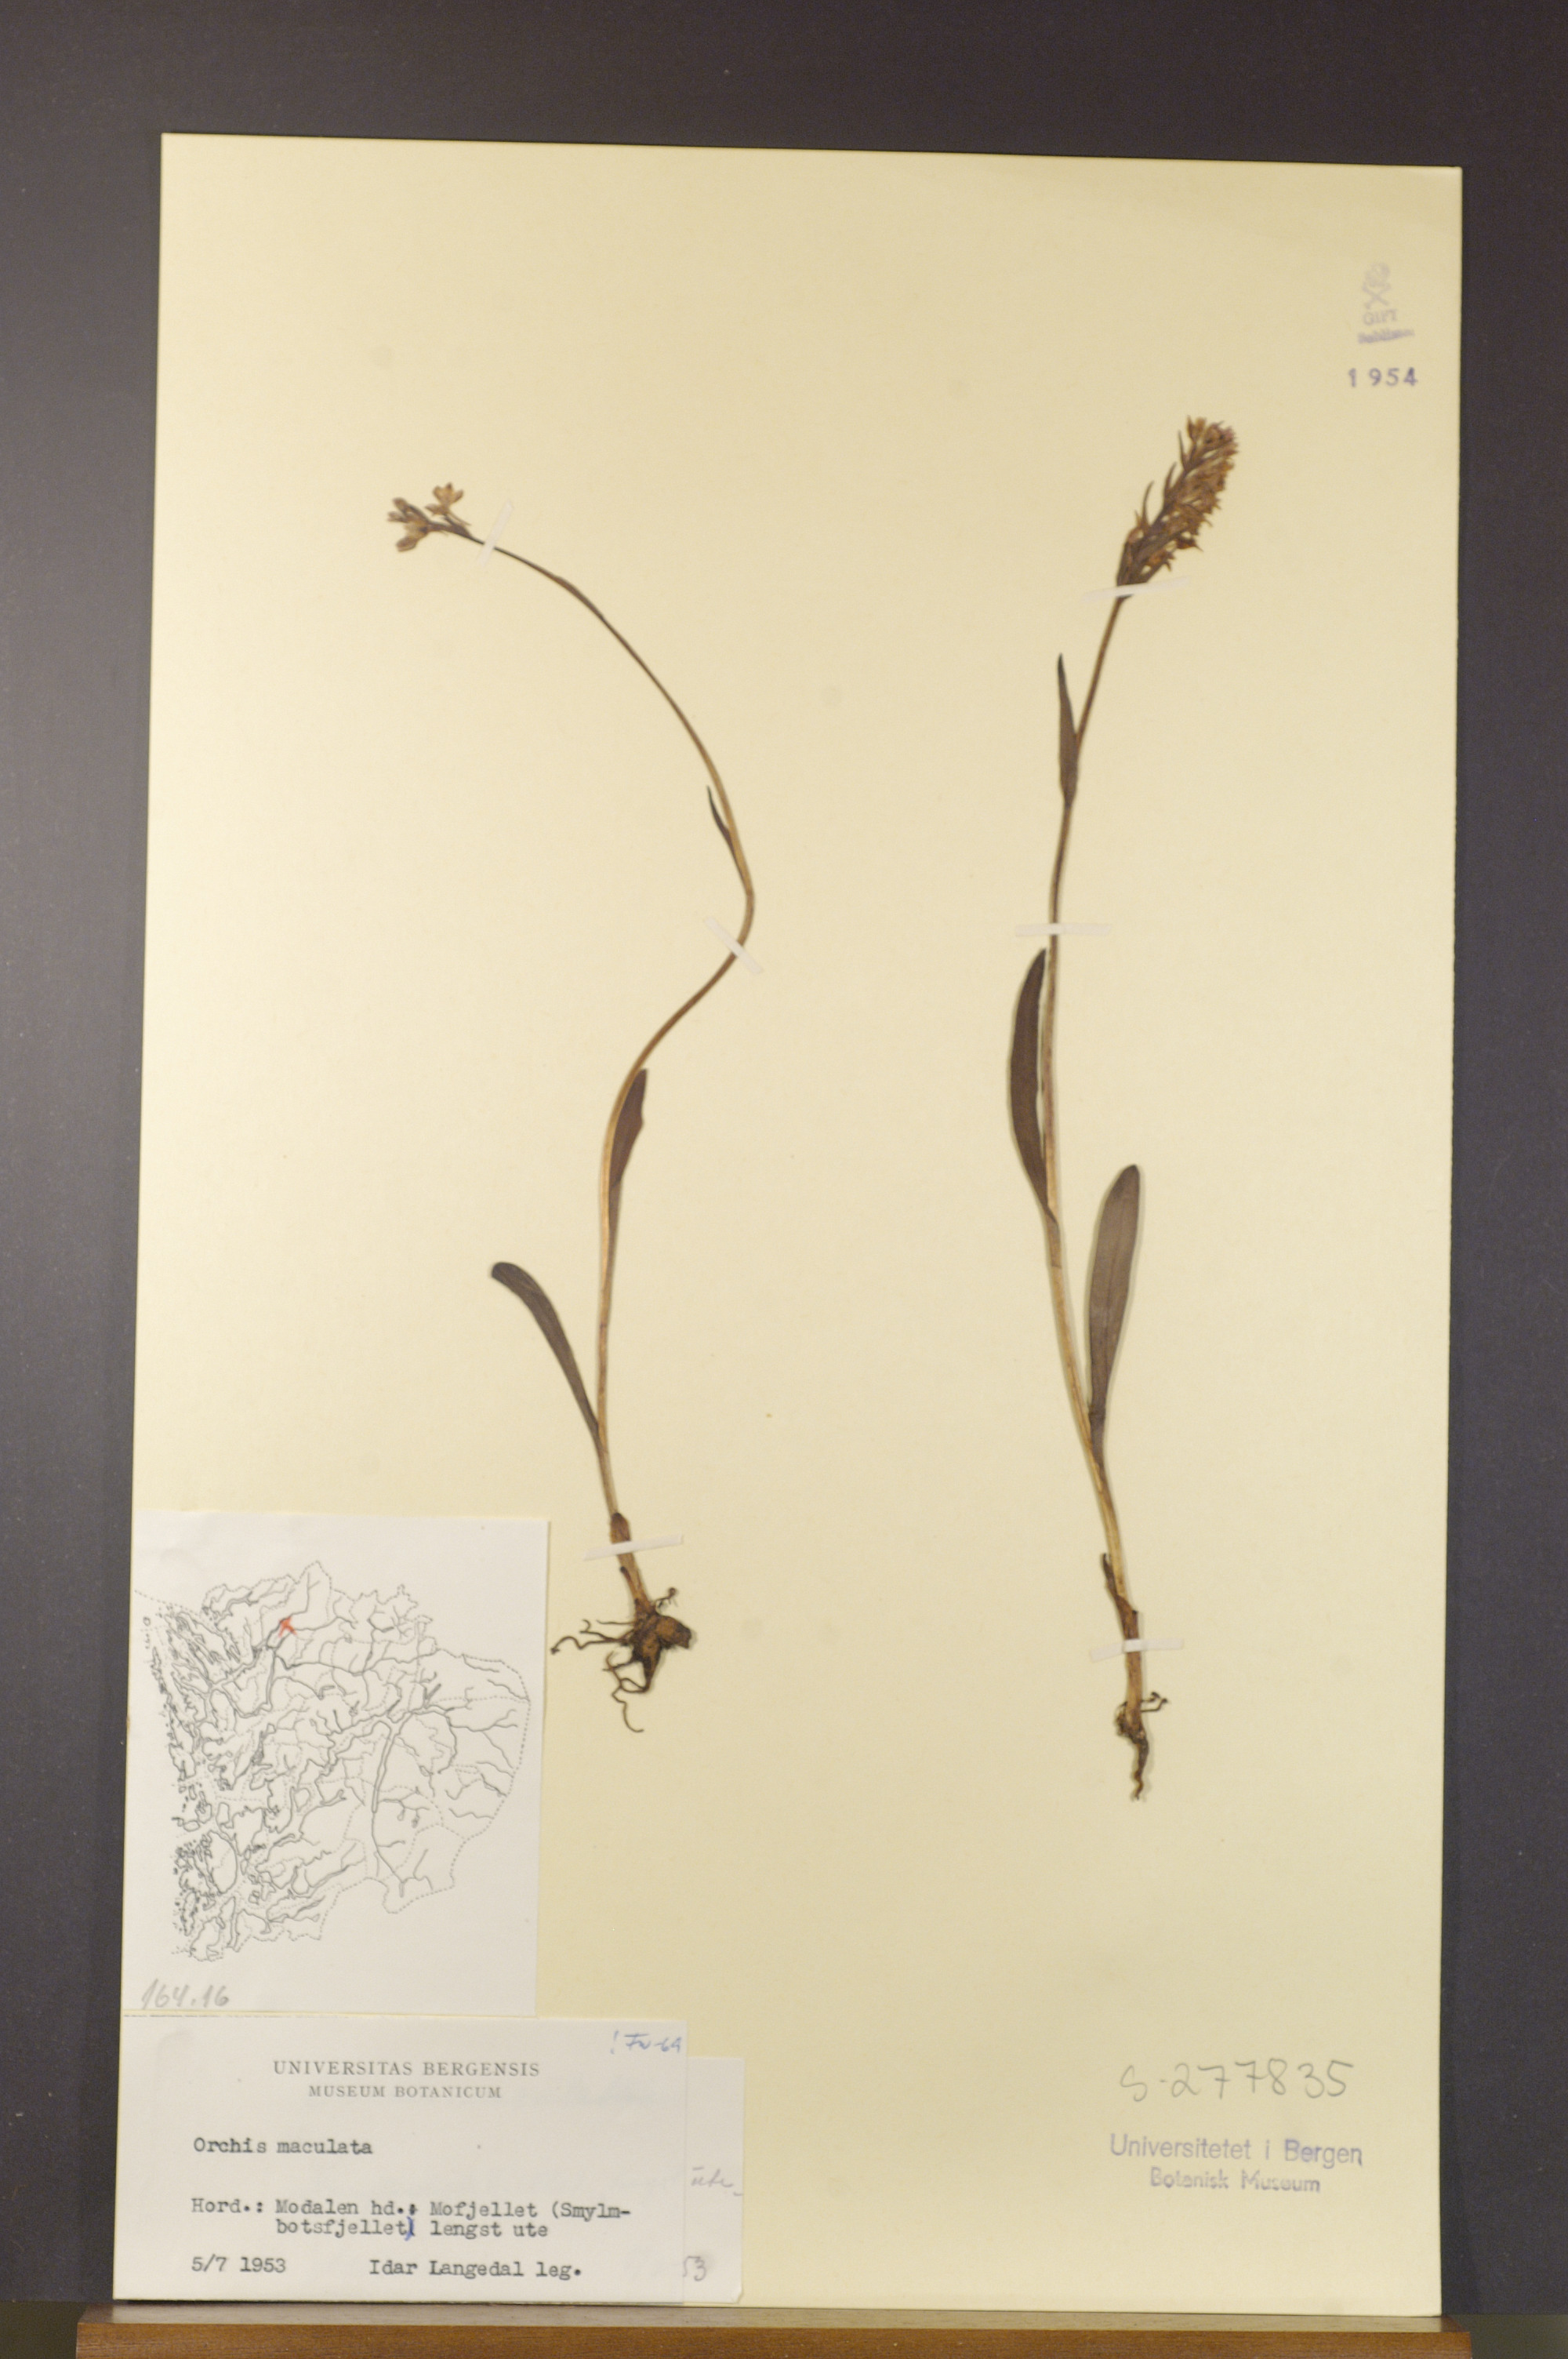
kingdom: Plantae
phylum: Tracheophyta
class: Liliopsida
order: Asparagales
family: Orchidaceae
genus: Dactylorhiza
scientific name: Dactylorhiza maculata
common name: Heath spotted-orchid
